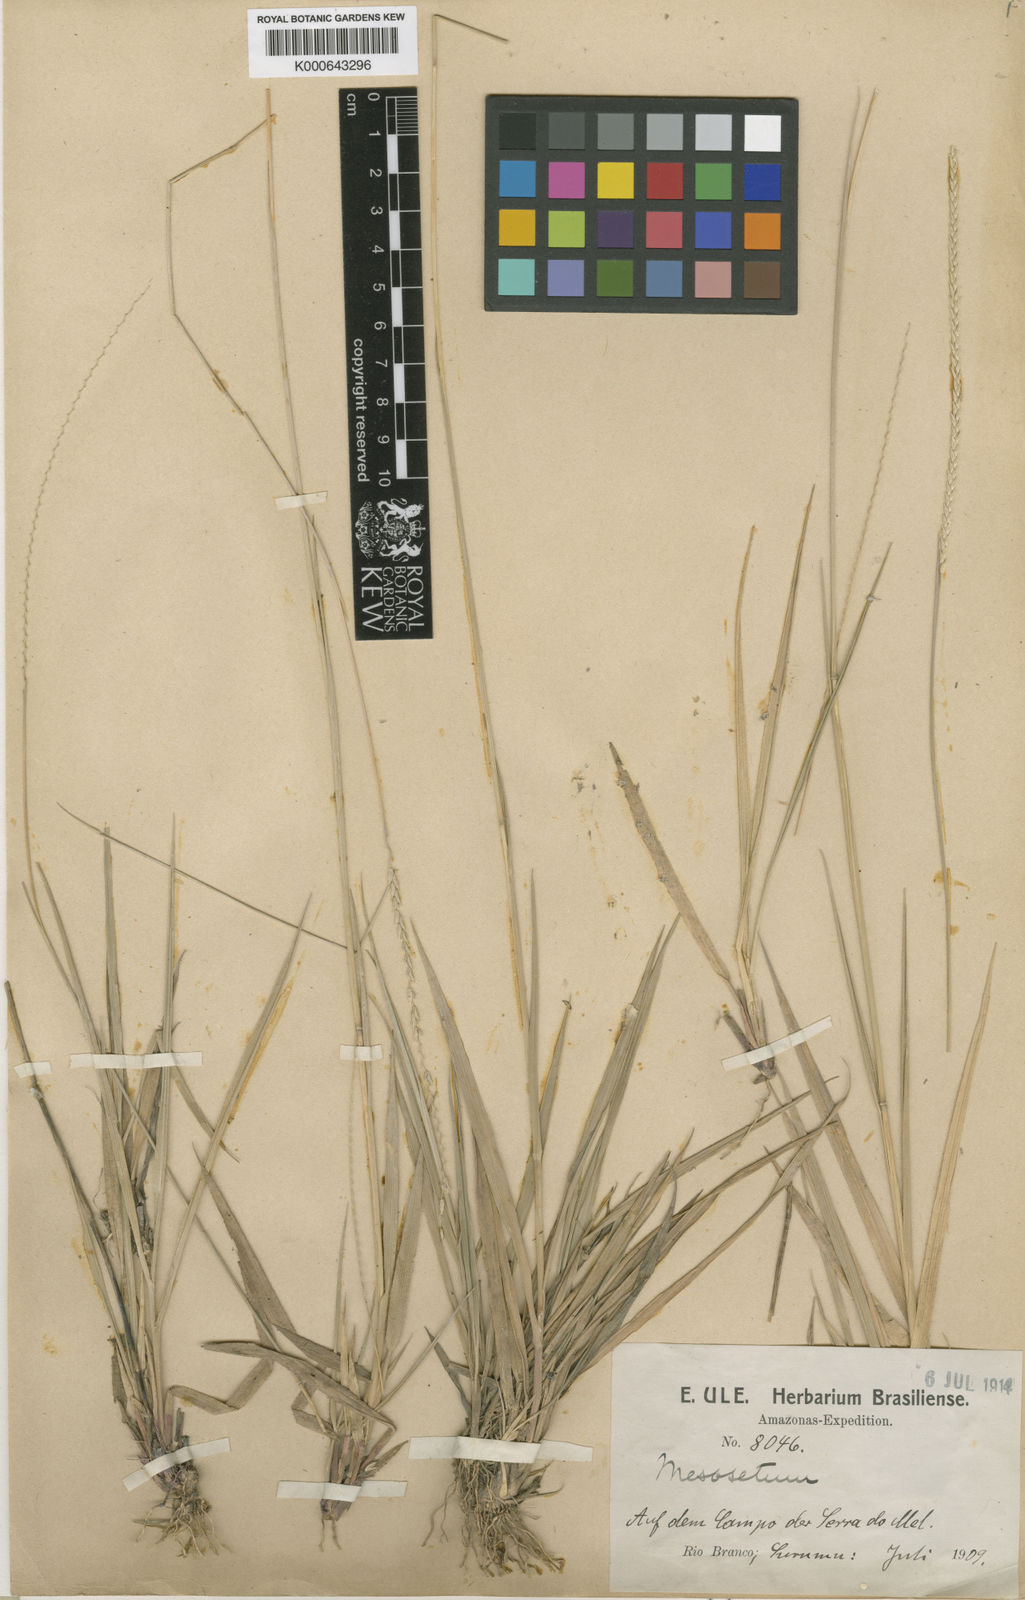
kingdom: Plantae
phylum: Tracheophyta
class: Liliopsida
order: Poales
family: Poaceae
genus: Mesosetum
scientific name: Mesosetum
